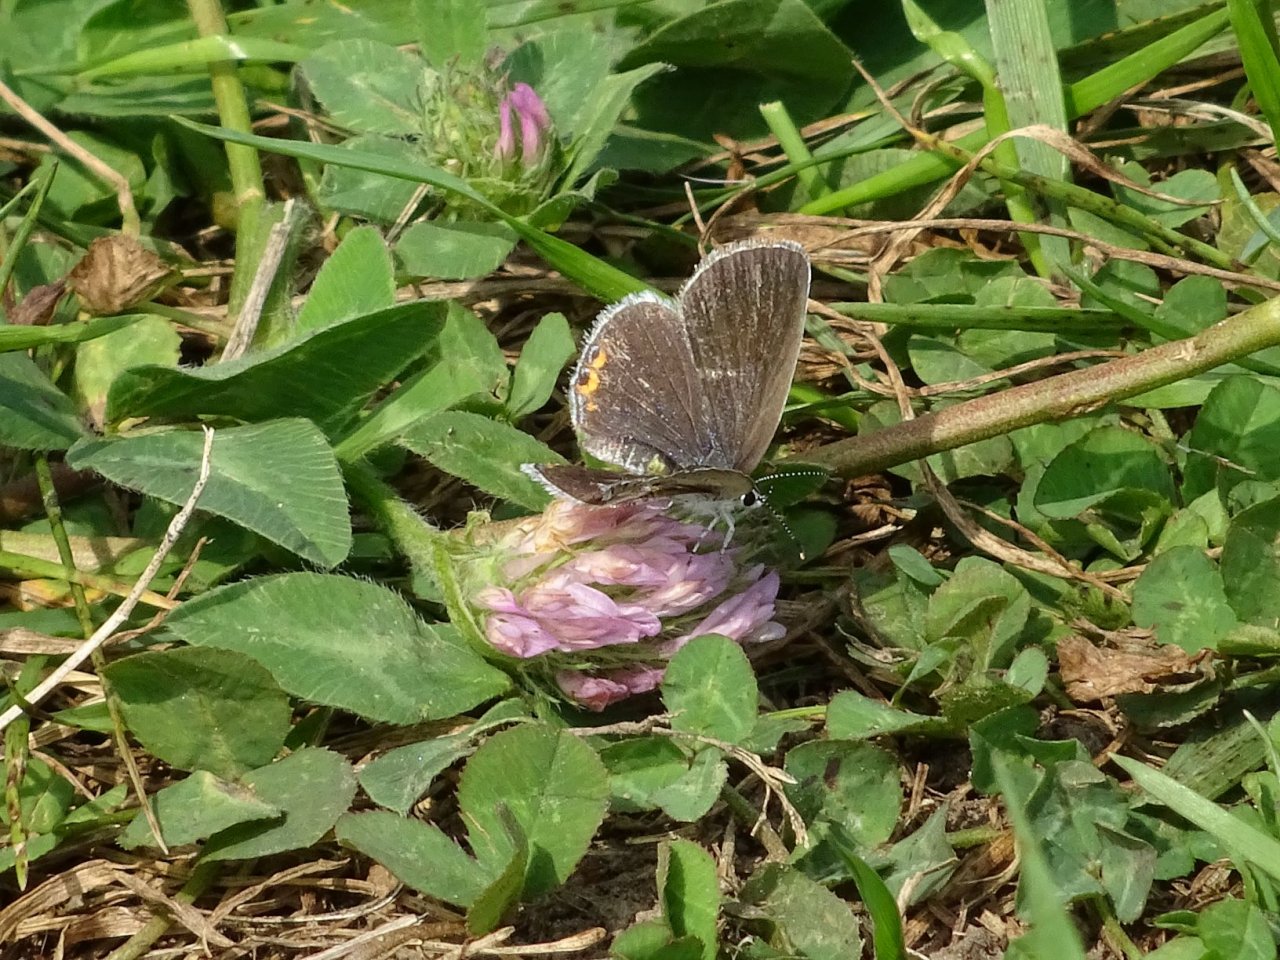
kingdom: Animalia
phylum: Arthropoda
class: Insecta
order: Lepidoptera
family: Lycaenidae
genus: Elkalyce
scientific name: Elkalyce comyntas
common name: Eastern Tailed-Blue
